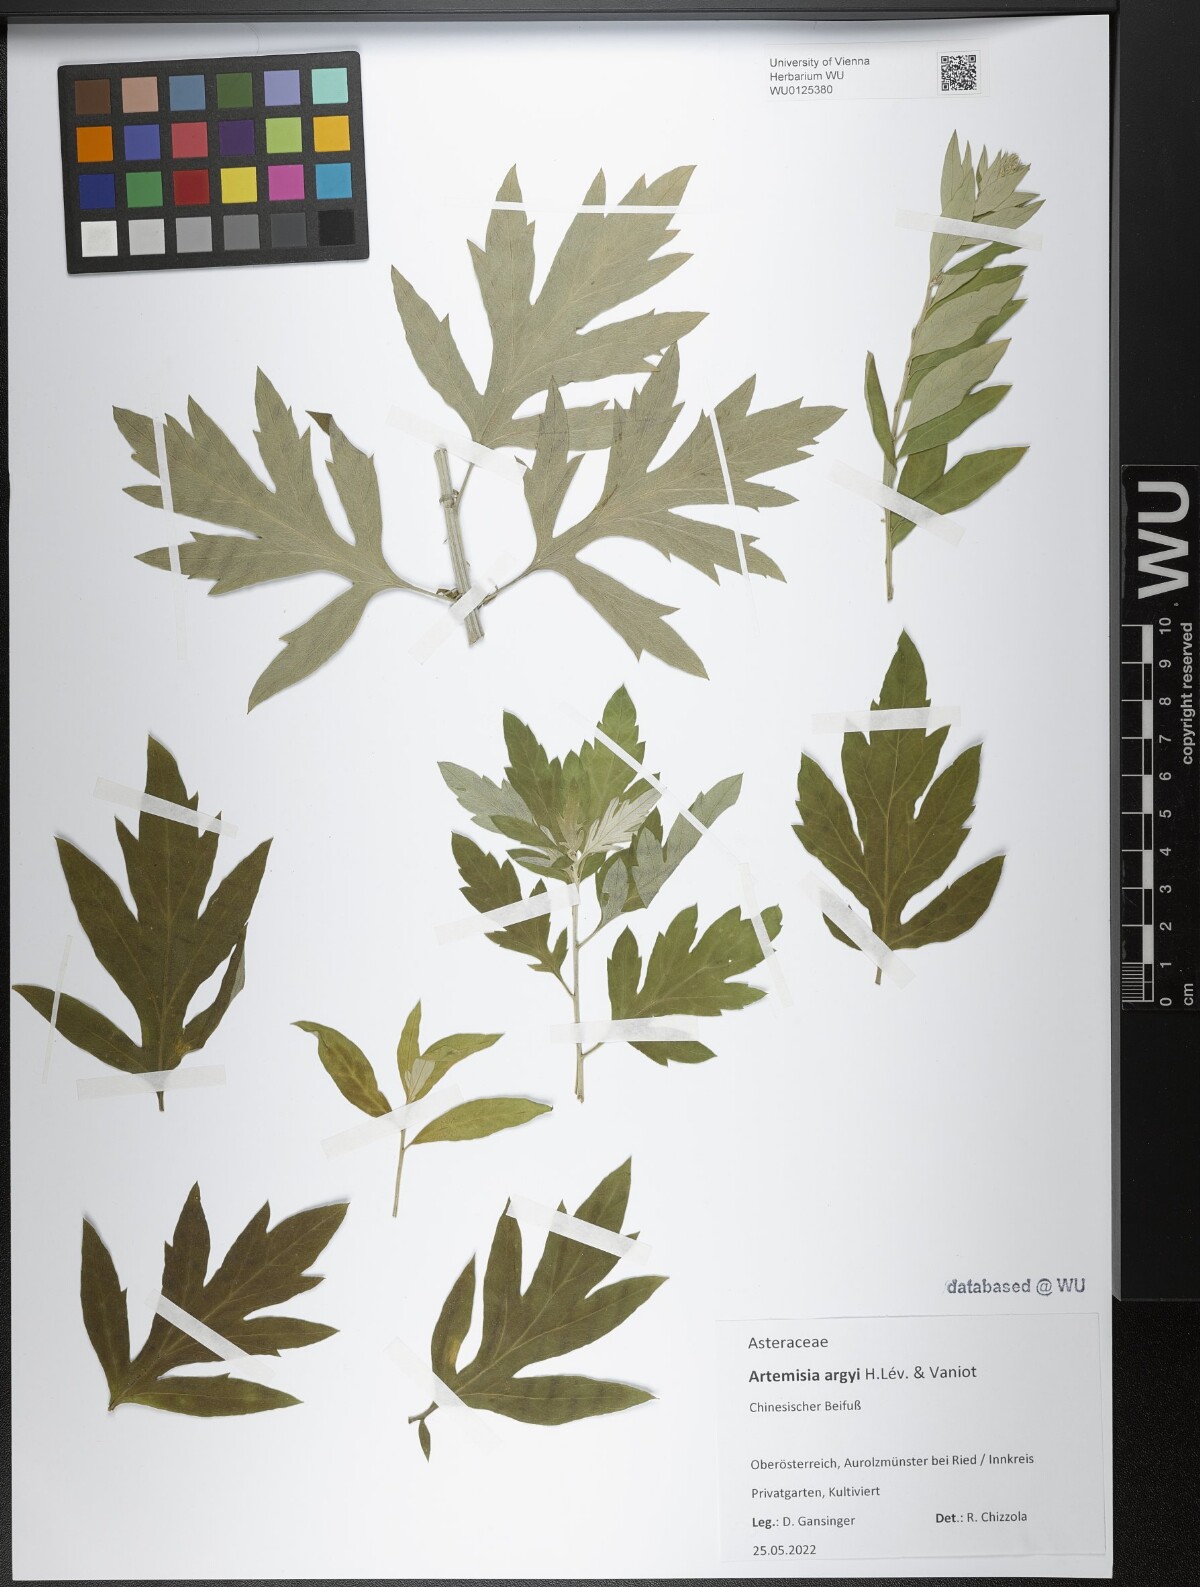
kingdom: Plantae
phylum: Tracheophyta
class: Magnoliopsida
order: Asterales
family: Asteraceae
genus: Artemisia
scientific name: Artemisia argyi
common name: Chinese mugwort
